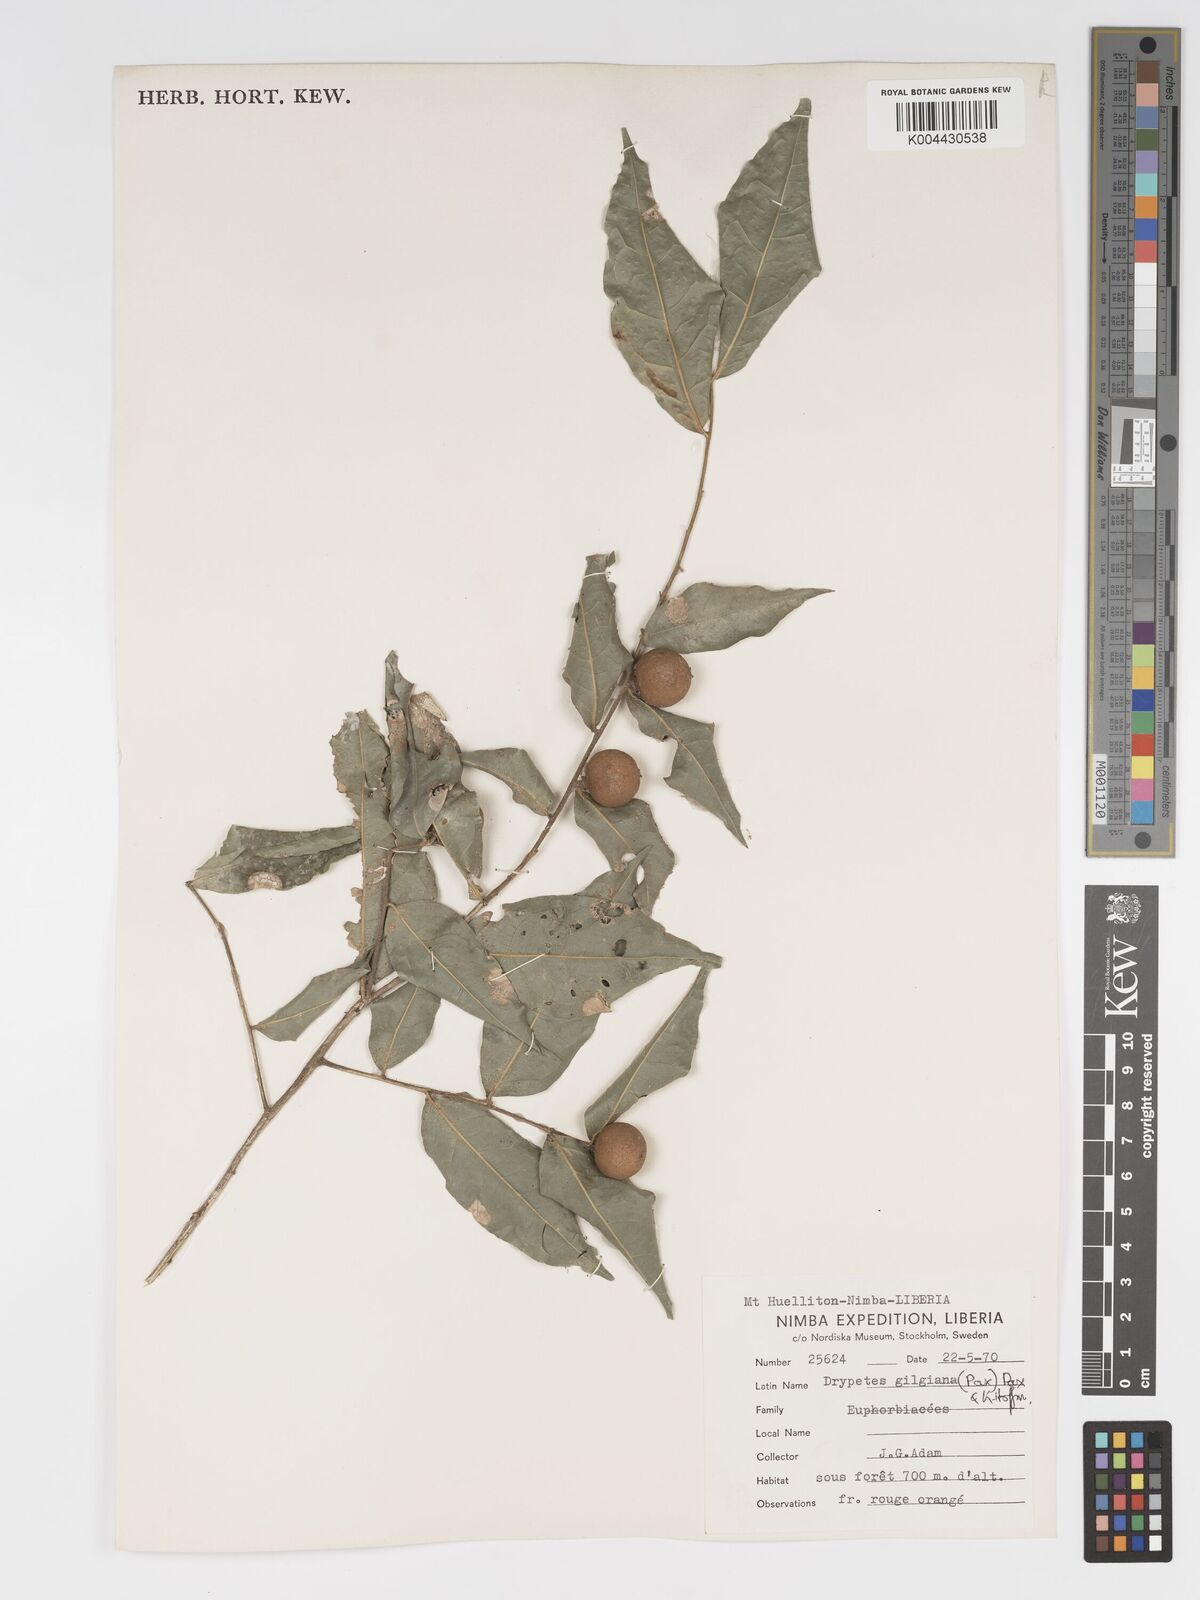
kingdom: Plantae
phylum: Tracheophyta
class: Magnoliopsida
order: Malpighiales
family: Putranjivaceae
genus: Drypetes
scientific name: Drypetes gilgiana
